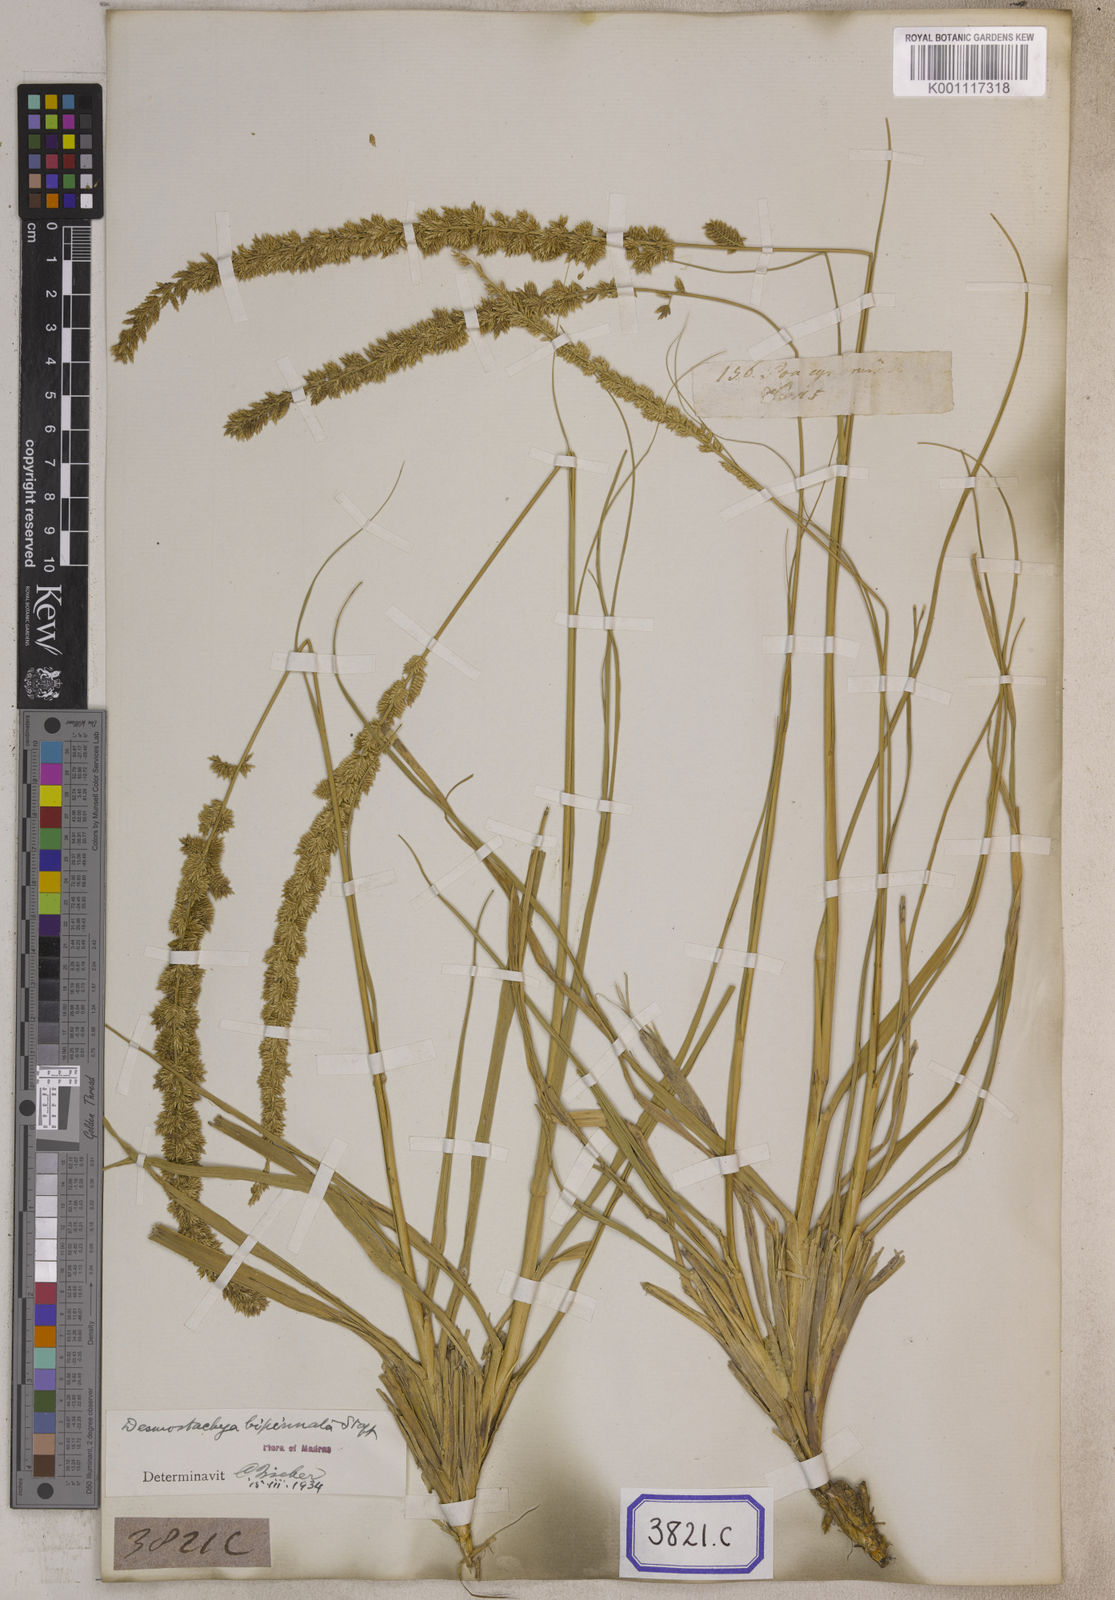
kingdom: Plantae
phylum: Tracheophyta
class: Liliopsida
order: Poales
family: Poaceae
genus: Eragrostis
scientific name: Eragrostis
